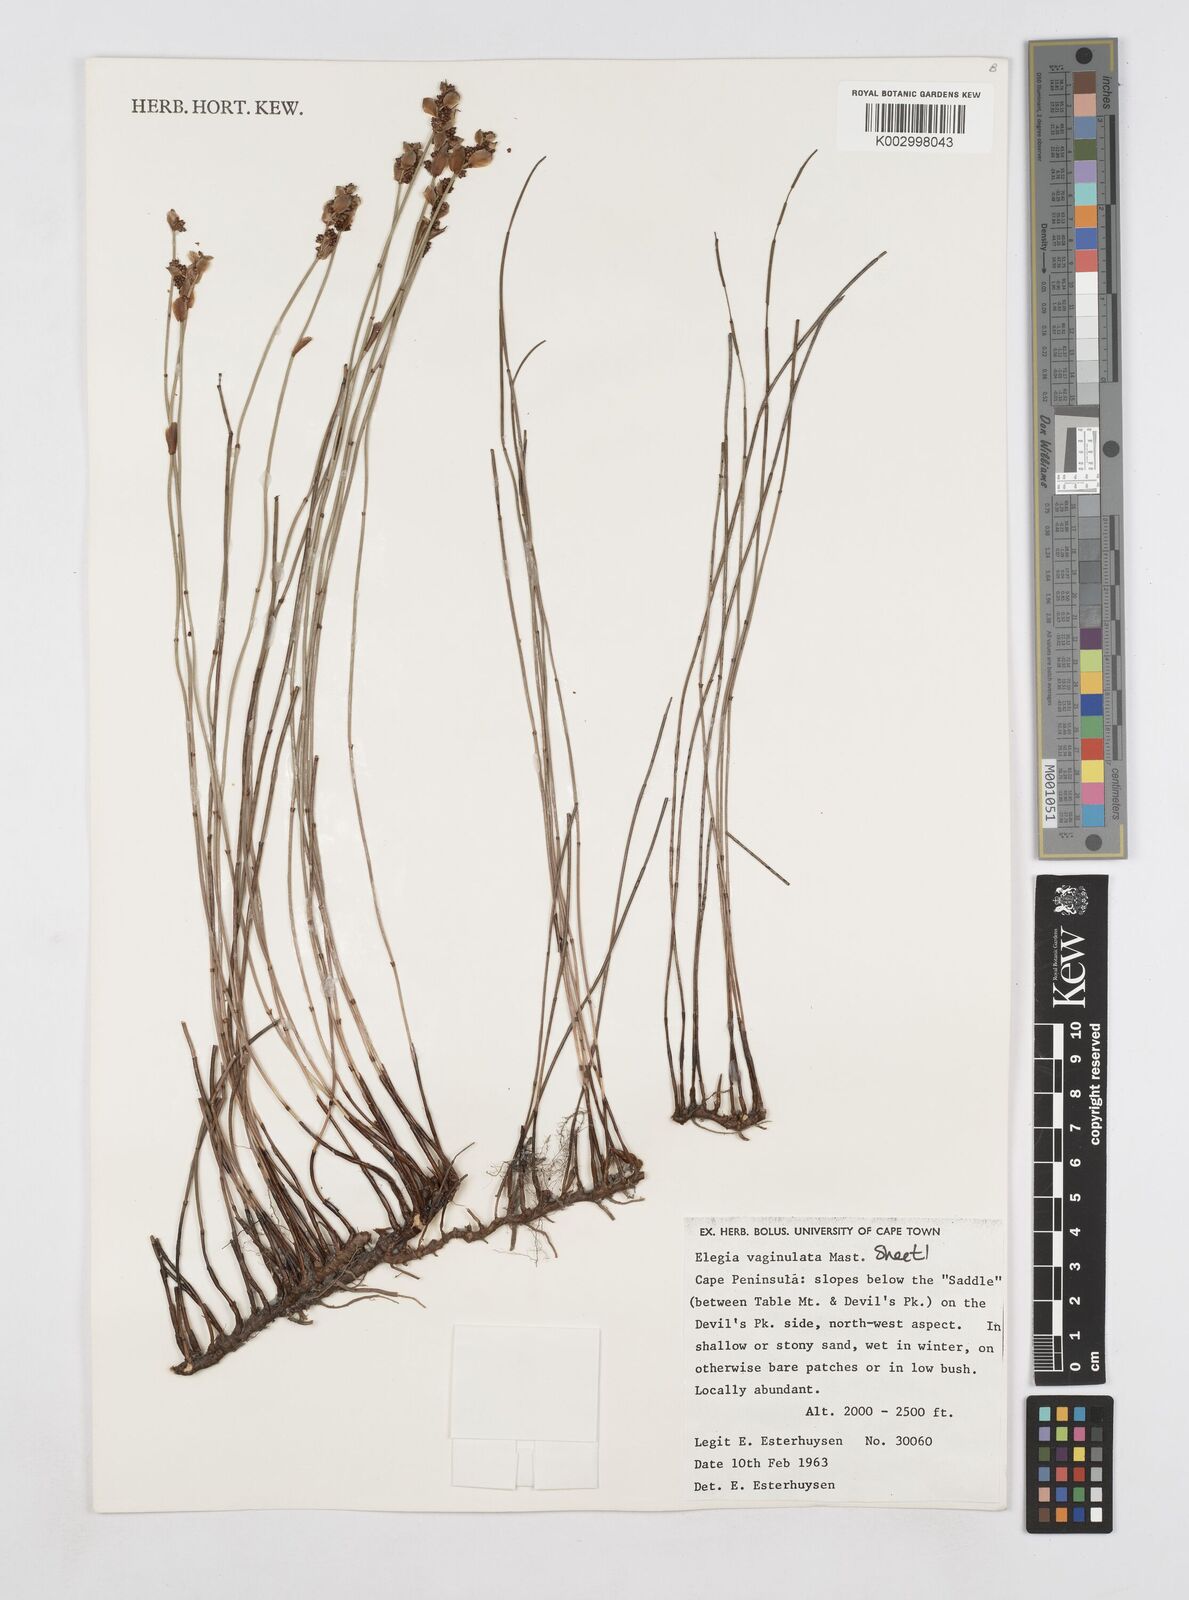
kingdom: Plantae
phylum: Tracheophyta
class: Liliopsida
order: Poales
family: Restionaceae
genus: Elegia
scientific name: Elegia vaginulata
